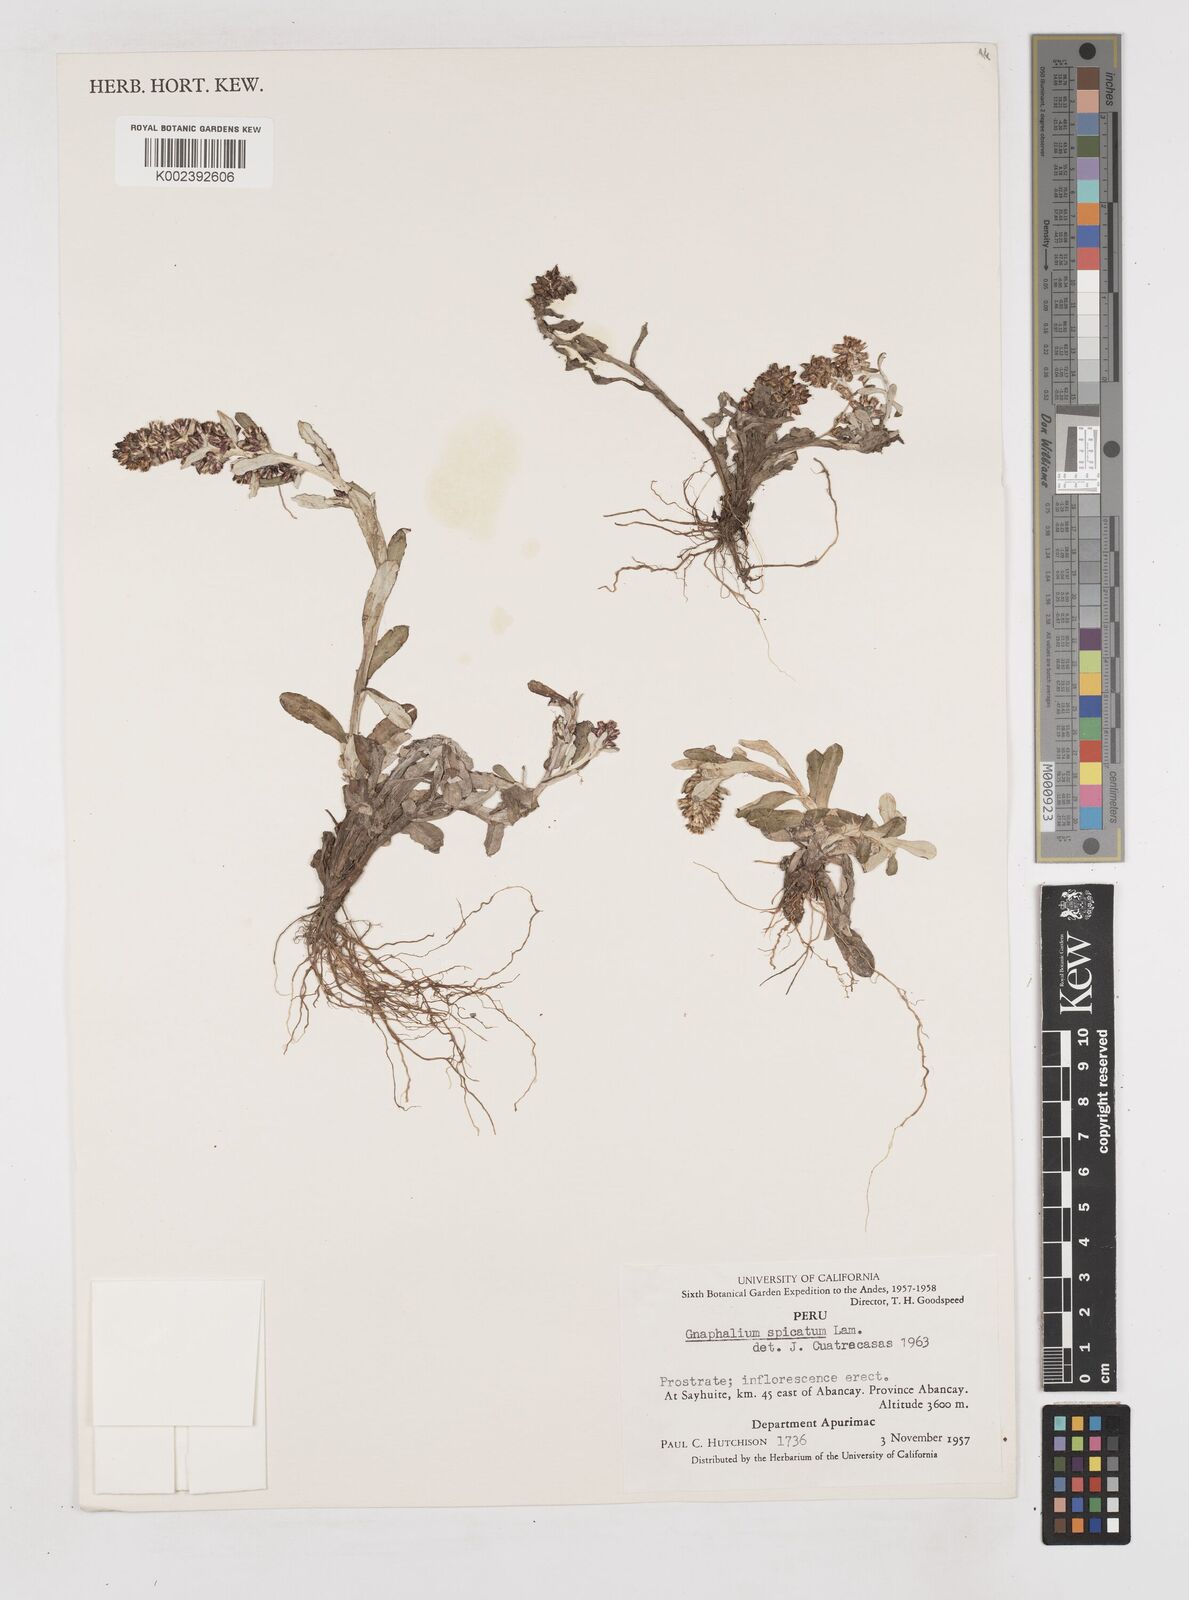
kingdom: Plantae
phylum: Tracheophyta
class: Magnoliopsida
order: Asterales
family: Asteraceae
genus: Gamochaeta
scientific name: Gamochaeta americana
